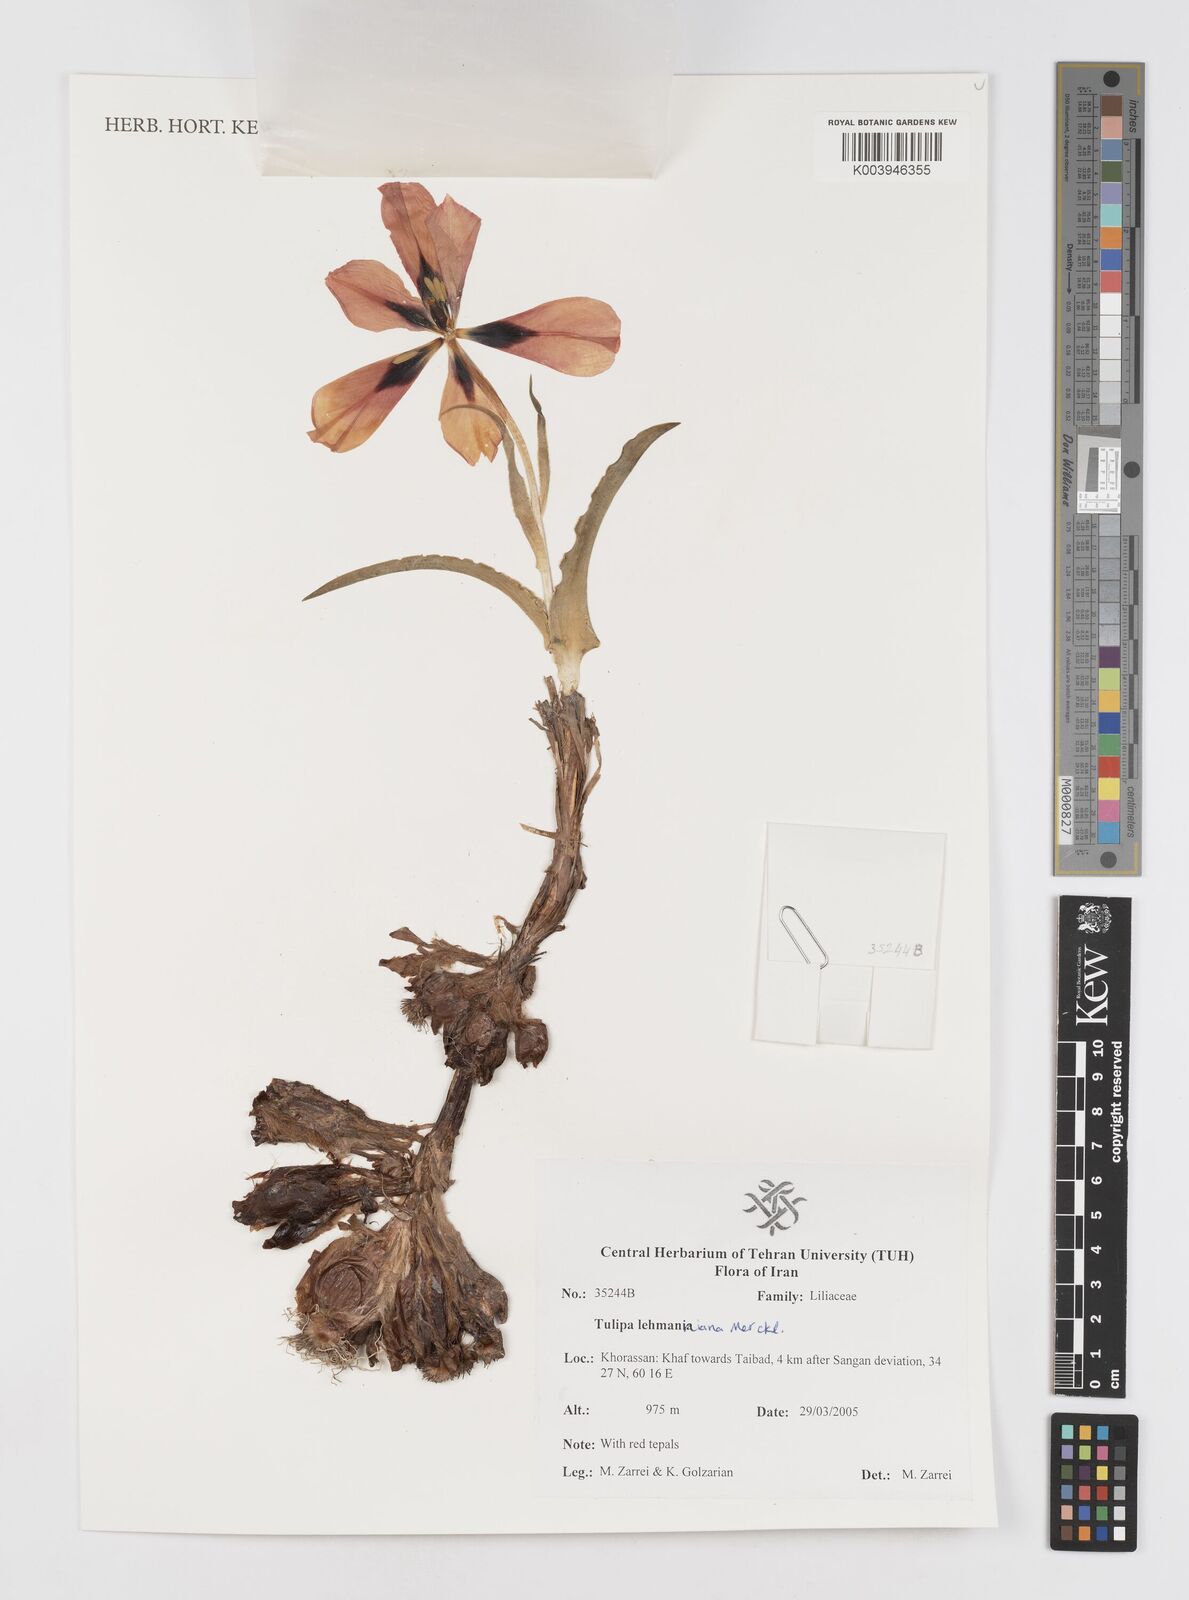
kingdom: Plantae
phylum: Tracheophyta
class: Liliopsida
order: Liliales
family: Liliaceae
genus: Tulipa
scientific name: Tulipa lehmanniana
